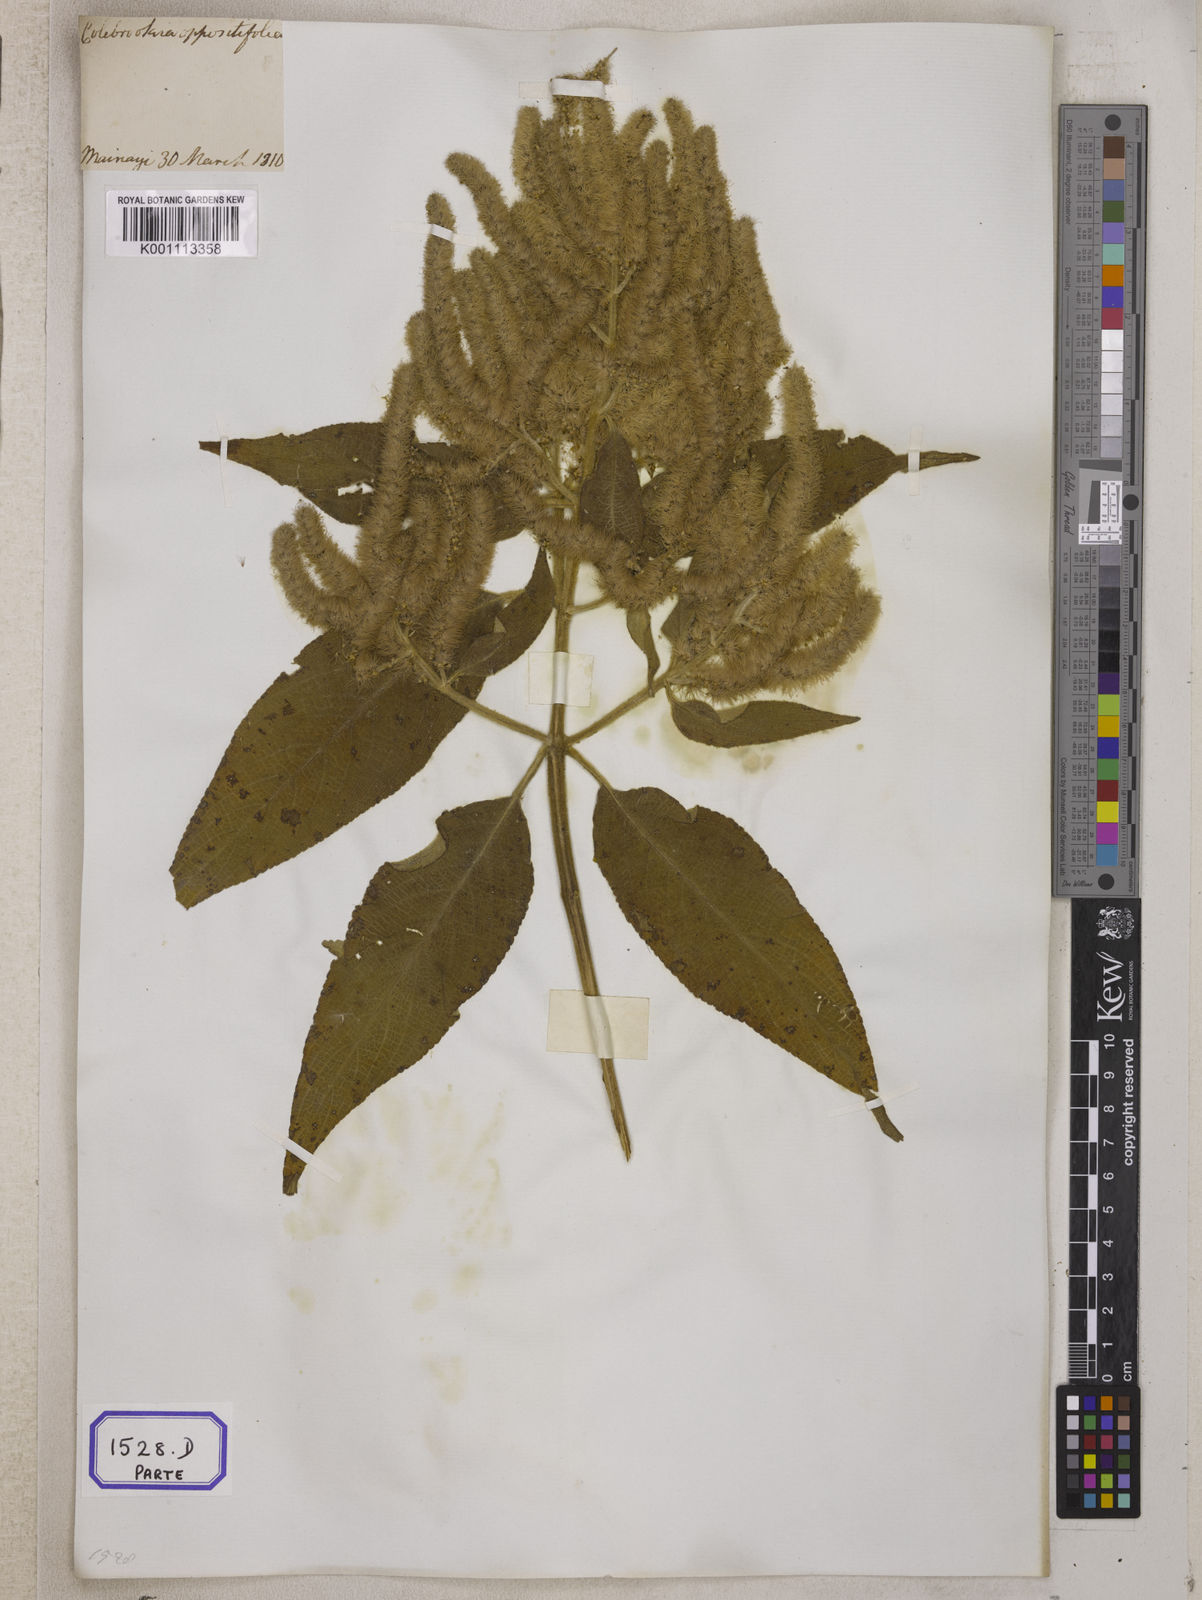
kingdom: Plantae
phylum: Tracheophyta
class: Magnoliopsida
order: Lamiales
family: Lamiaceae
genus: Colebrookea
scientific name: Colebrookea
